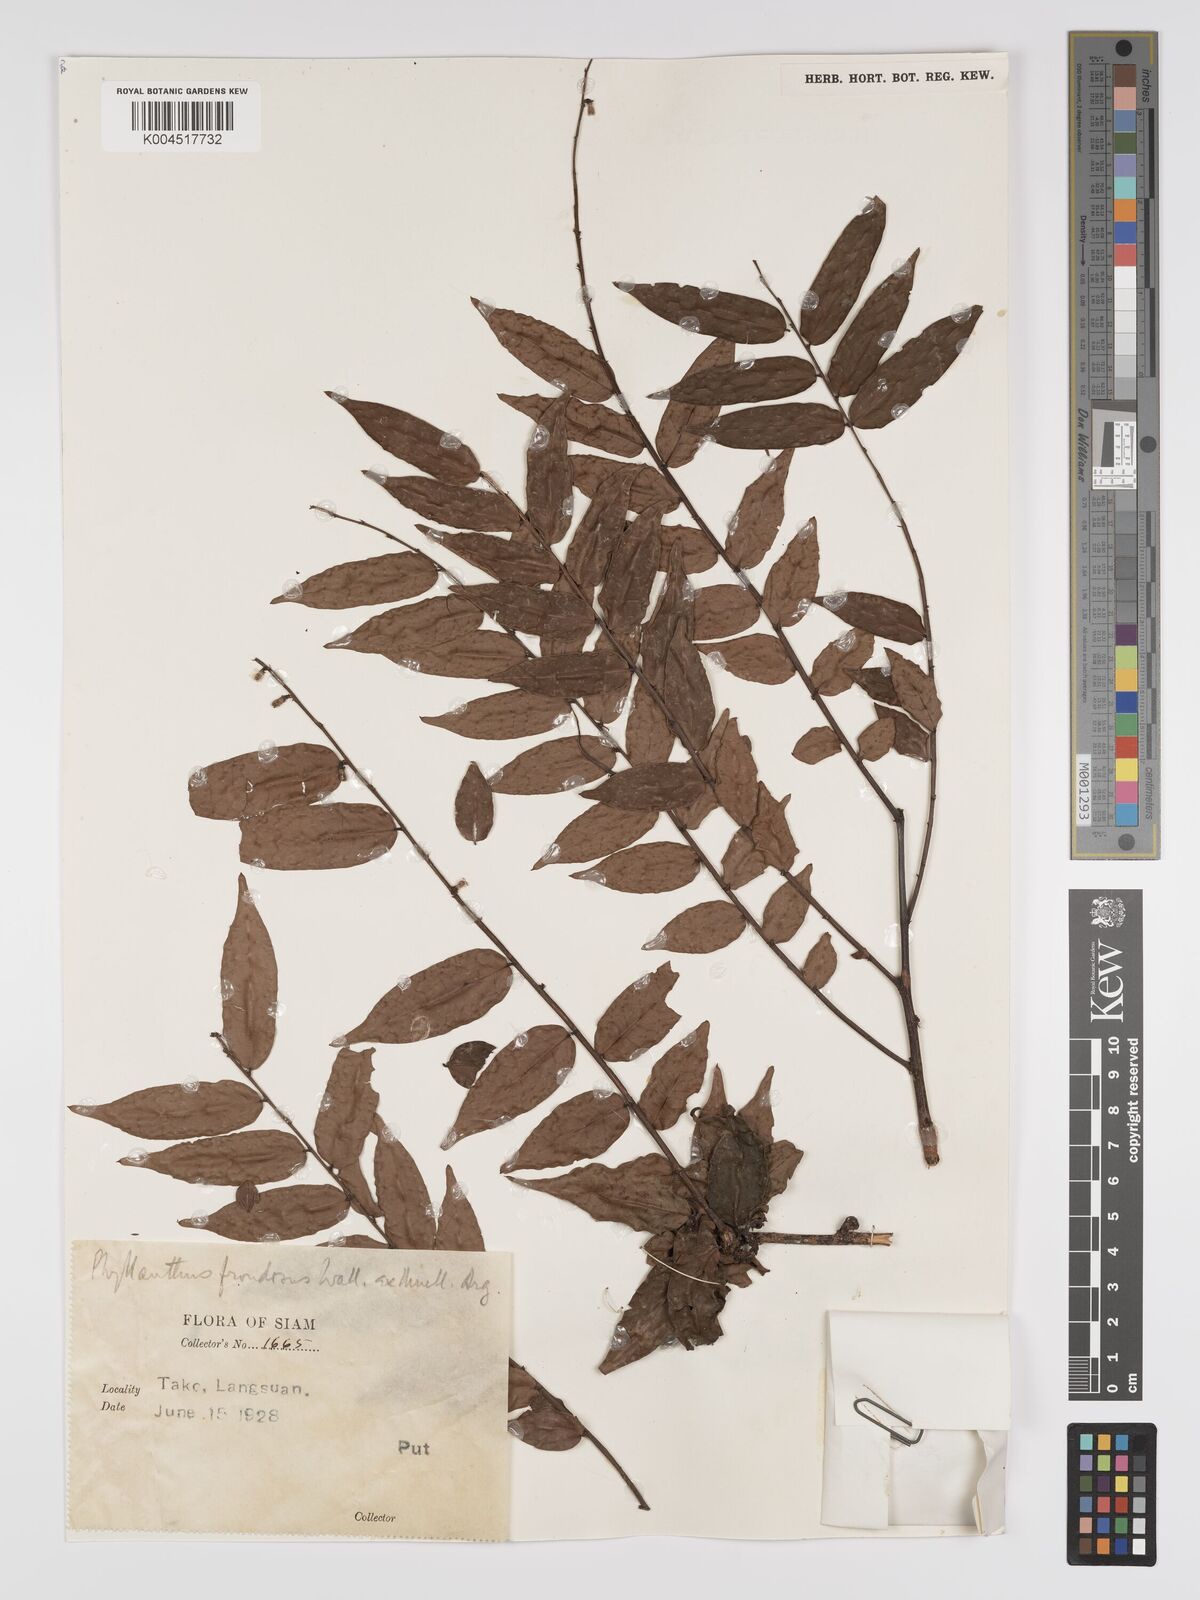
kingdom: Plantae
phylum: Tracheophyta
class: Magnoliopsida
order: Malpighiales
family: Phyllanthaceae
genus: Phyllanthus
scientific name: Phyllanthus
